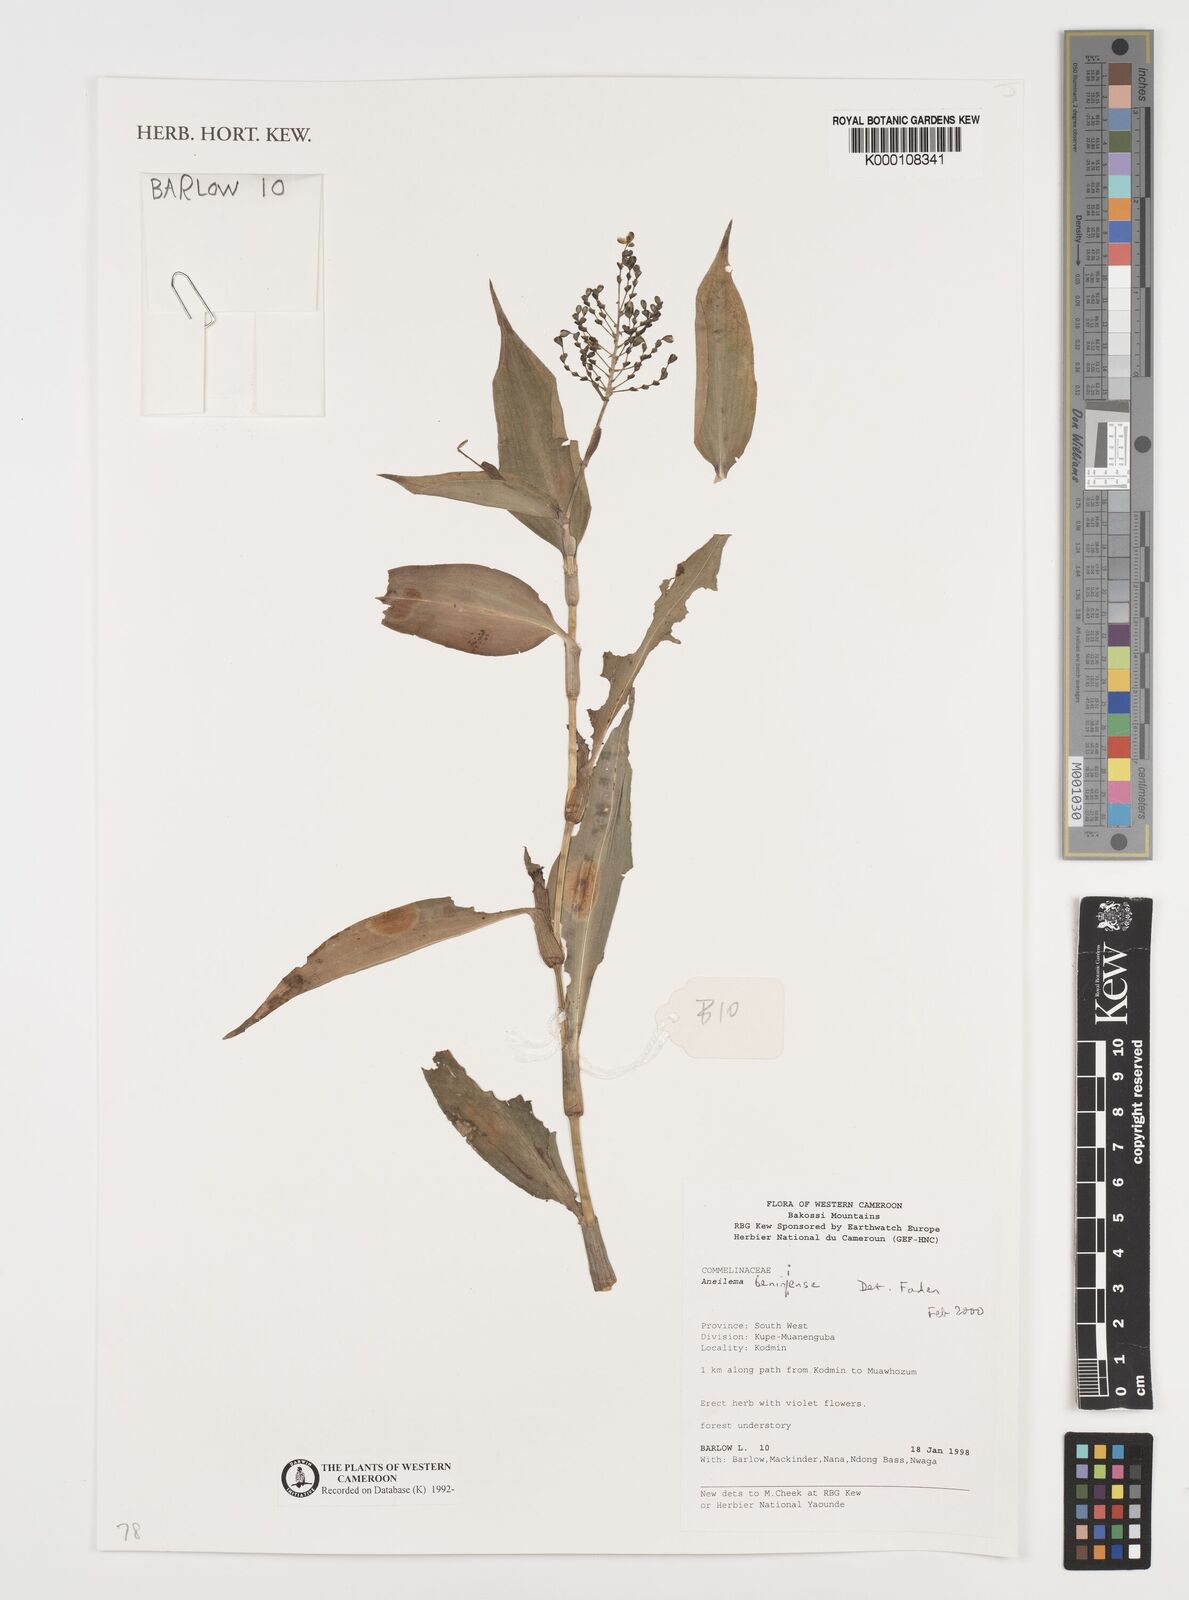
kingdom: Plantae
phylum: Tracheophyta
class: Liliopsida
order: Commelinales
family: Commelinaceae
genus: Aneilema
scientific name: Aneilema beniniense
